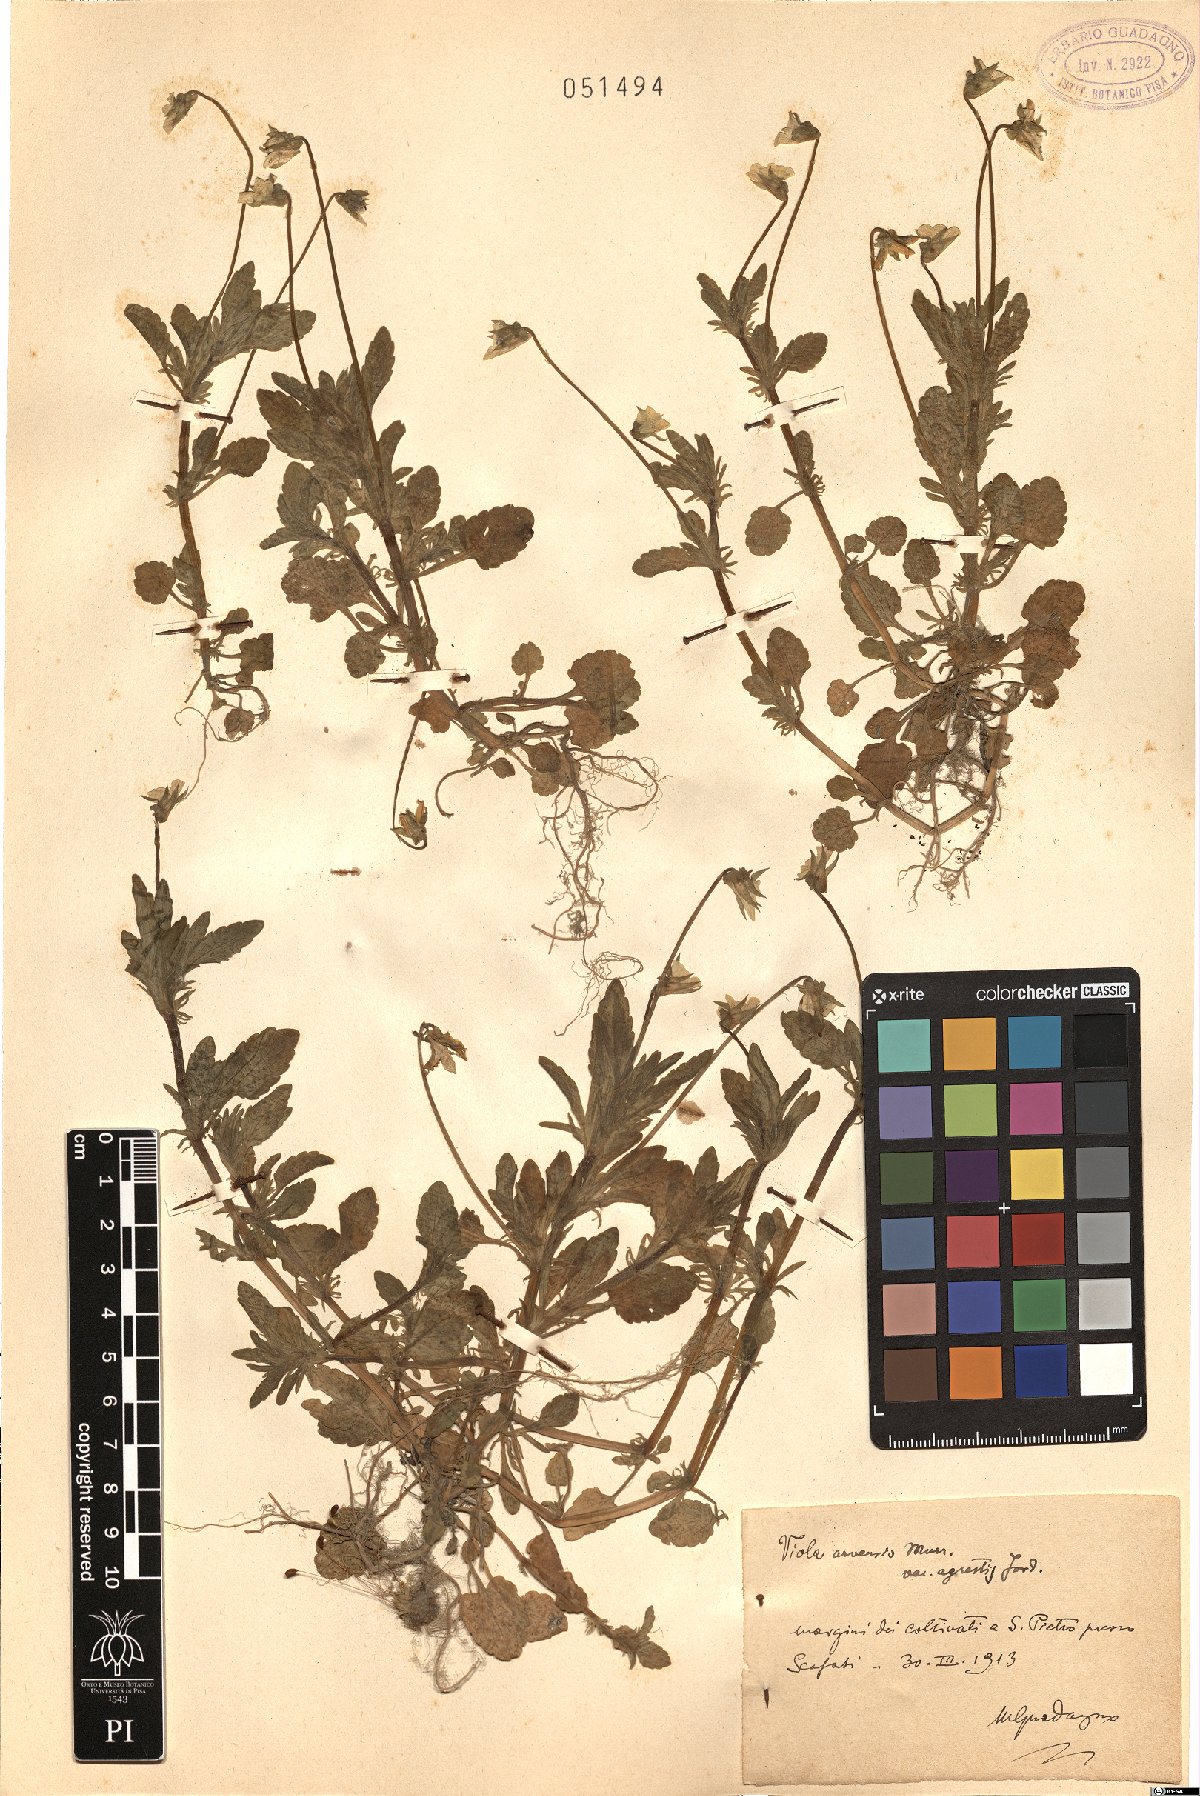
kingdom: Plantae
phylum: Tracheophyta
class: Magnoliopsida
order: Malpighiales
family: Violaceae
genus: Viola
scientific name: Viola arvensis
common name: Field pansy
